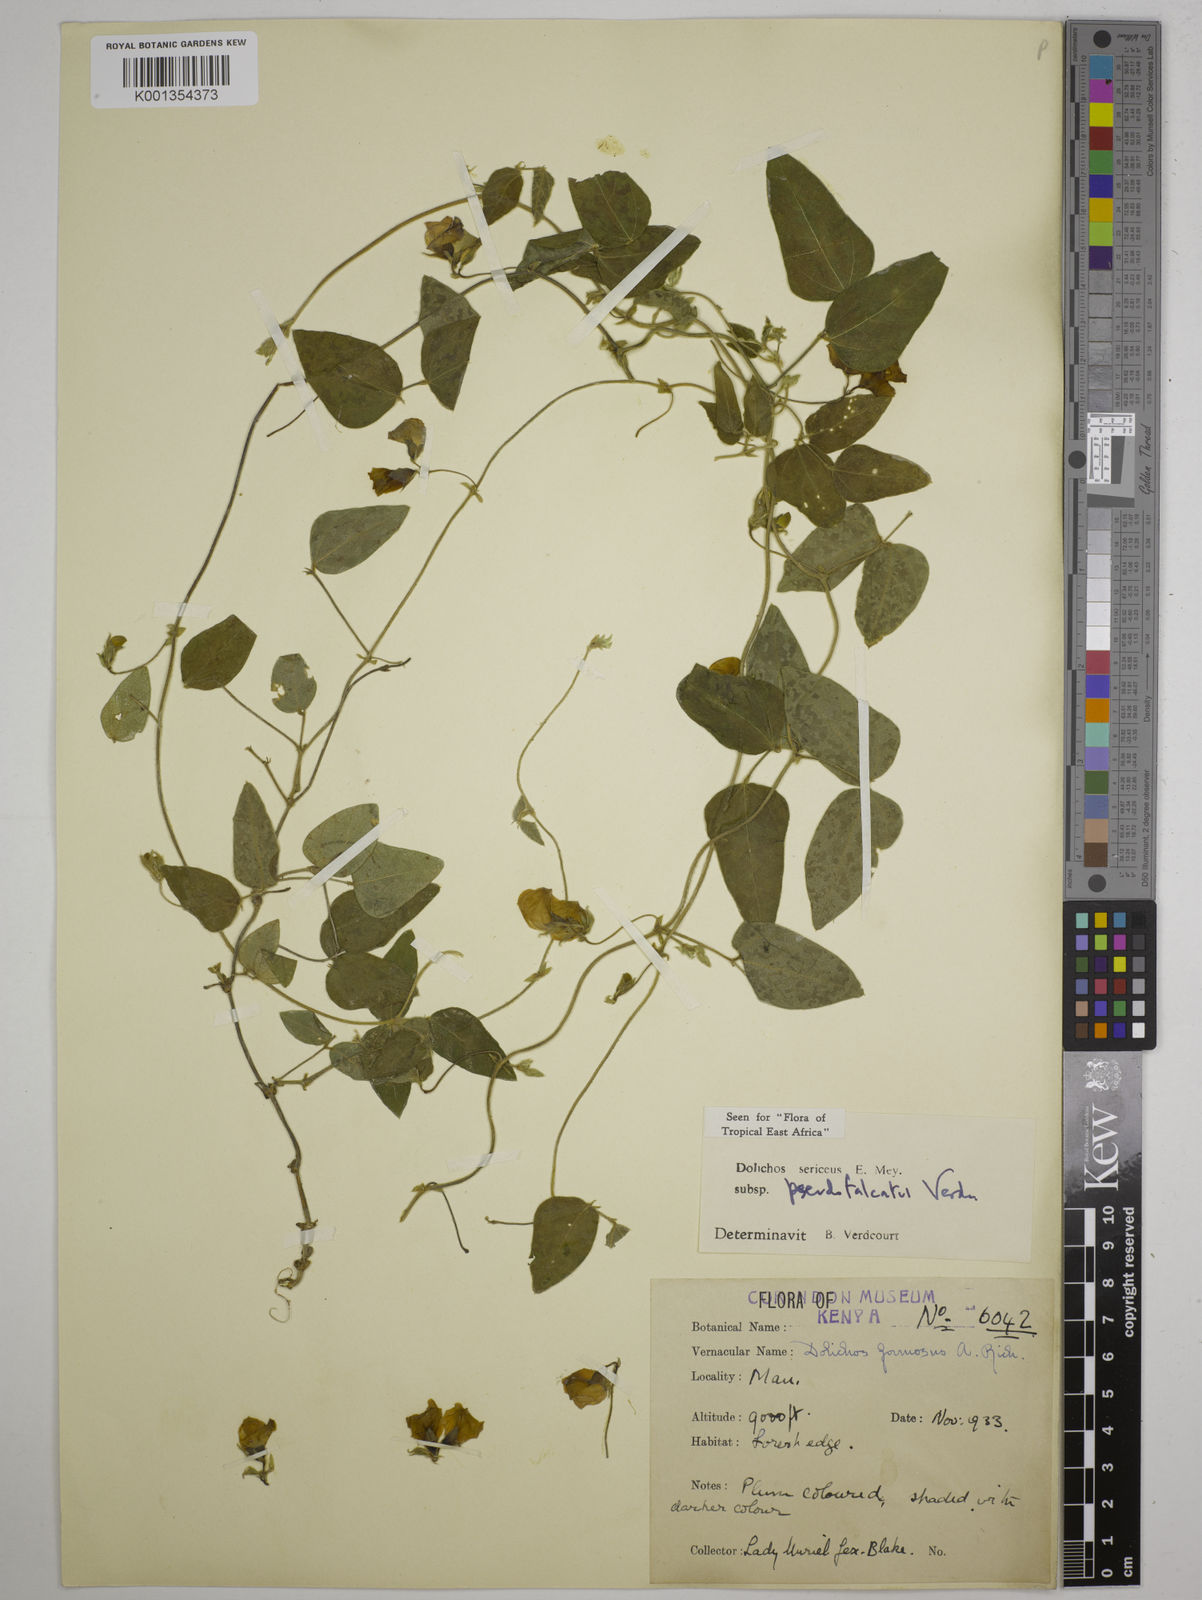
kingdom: Plantae
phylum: Tracheophyta
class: Magnoliopsida
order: Fabales
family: Fabaceae
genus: Dolichos
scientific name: Dolichos
